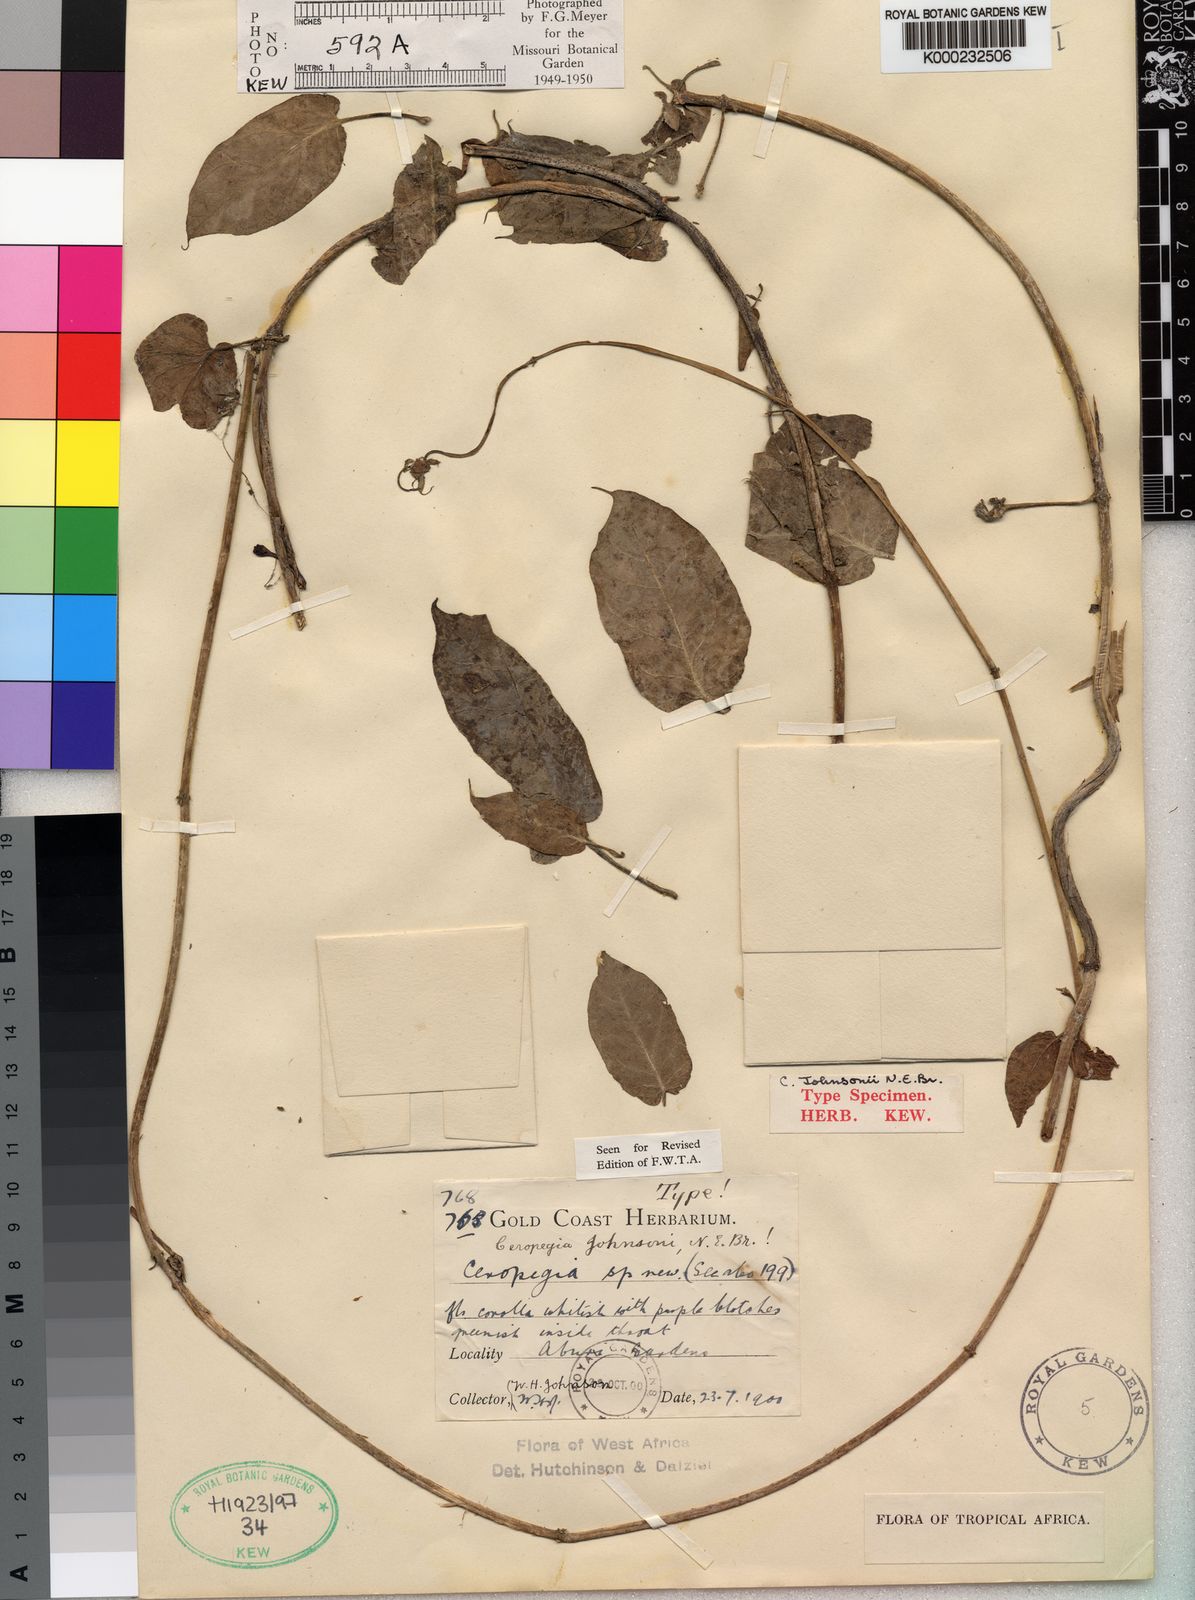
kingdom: Plantae
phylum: Tracheophyta
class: Magnoliopsida
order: Gentianales
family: Apocynaceae
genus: Ceropegia
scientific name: Ceropegia johnsonii
